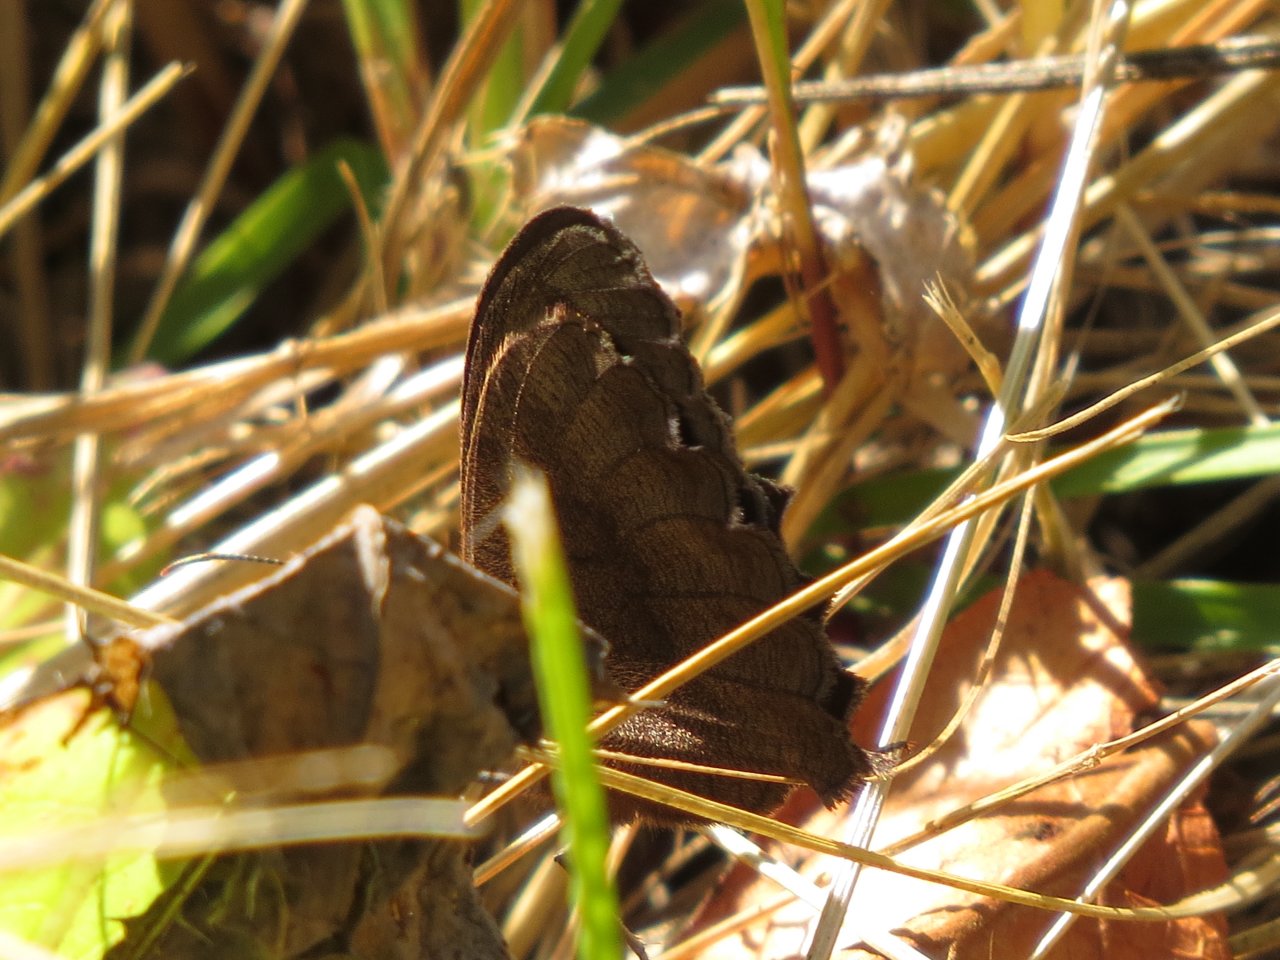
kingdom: Animalia
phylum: Arthropoda
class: Insecta
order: Lepidoptera
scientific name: Lepidoptera
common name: Butterflies
